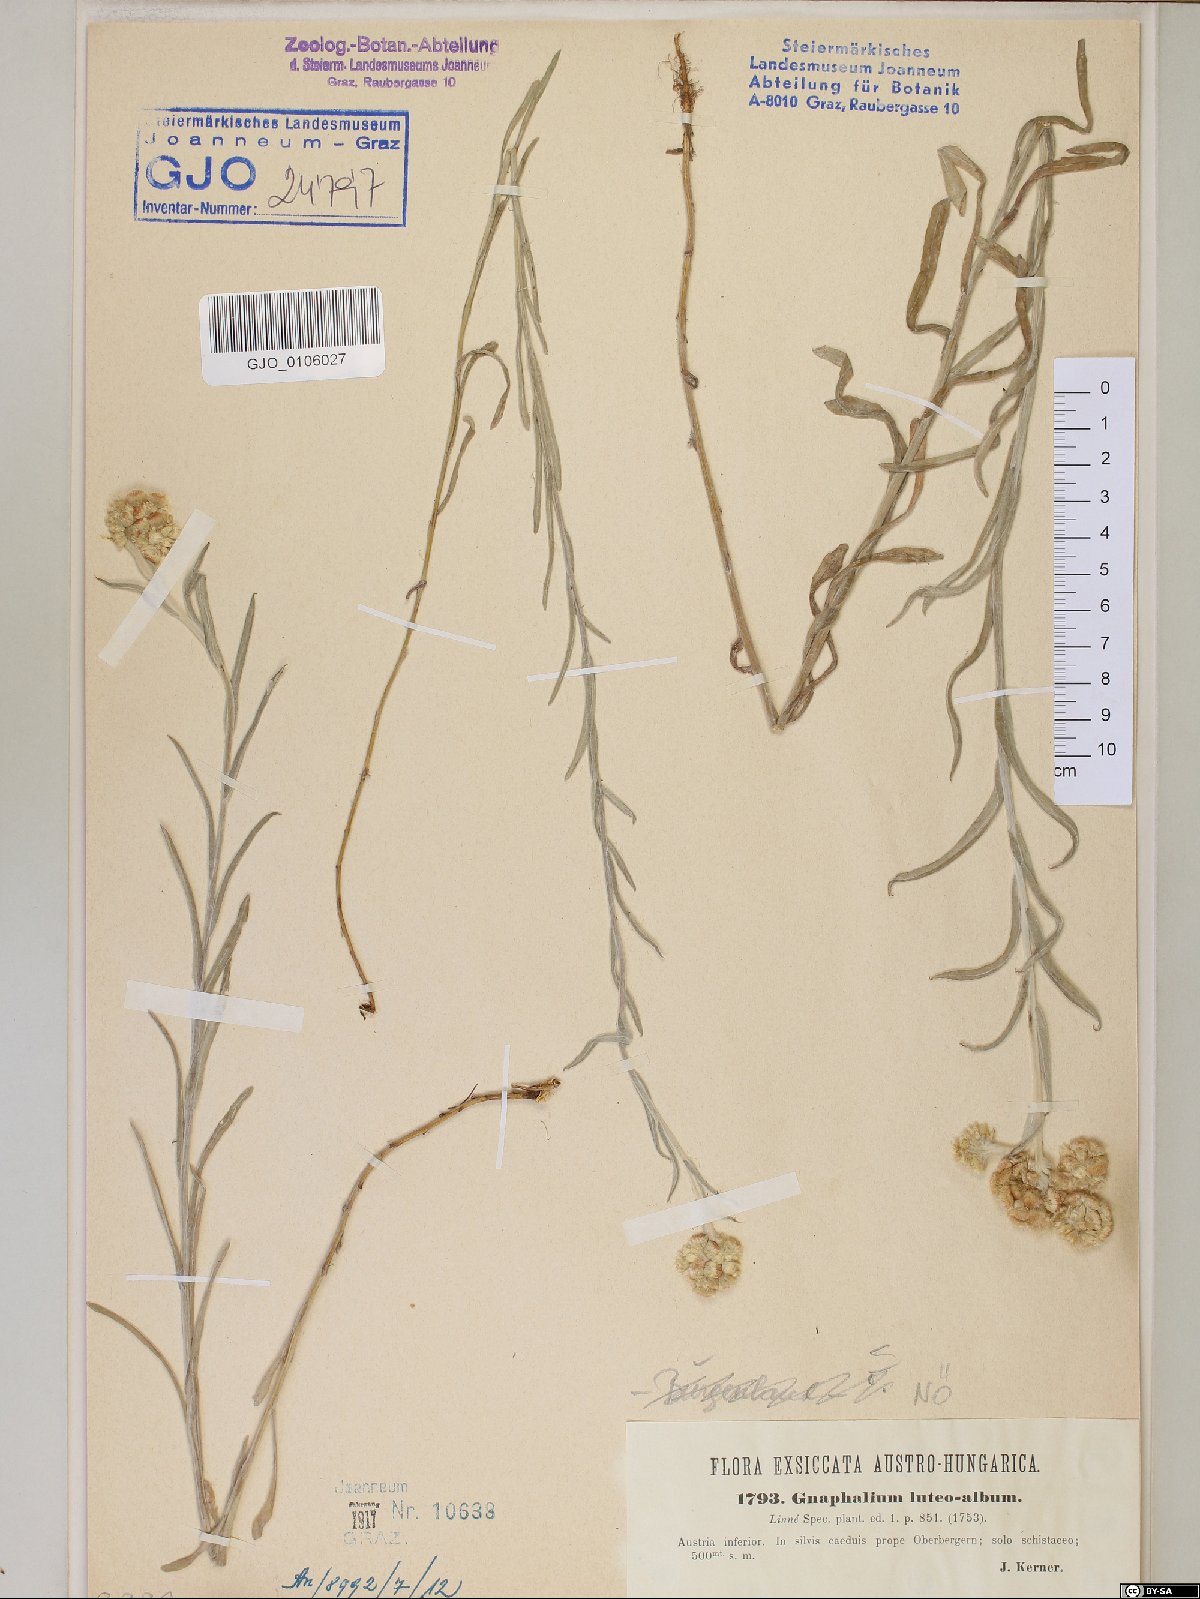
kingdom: Plantae
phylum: Tracheophyta
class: Magnoliopsida
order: Asterales
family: Asteraceae
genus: Helichrysum
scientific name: Helichrysum luteoalbum
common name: Daisy
